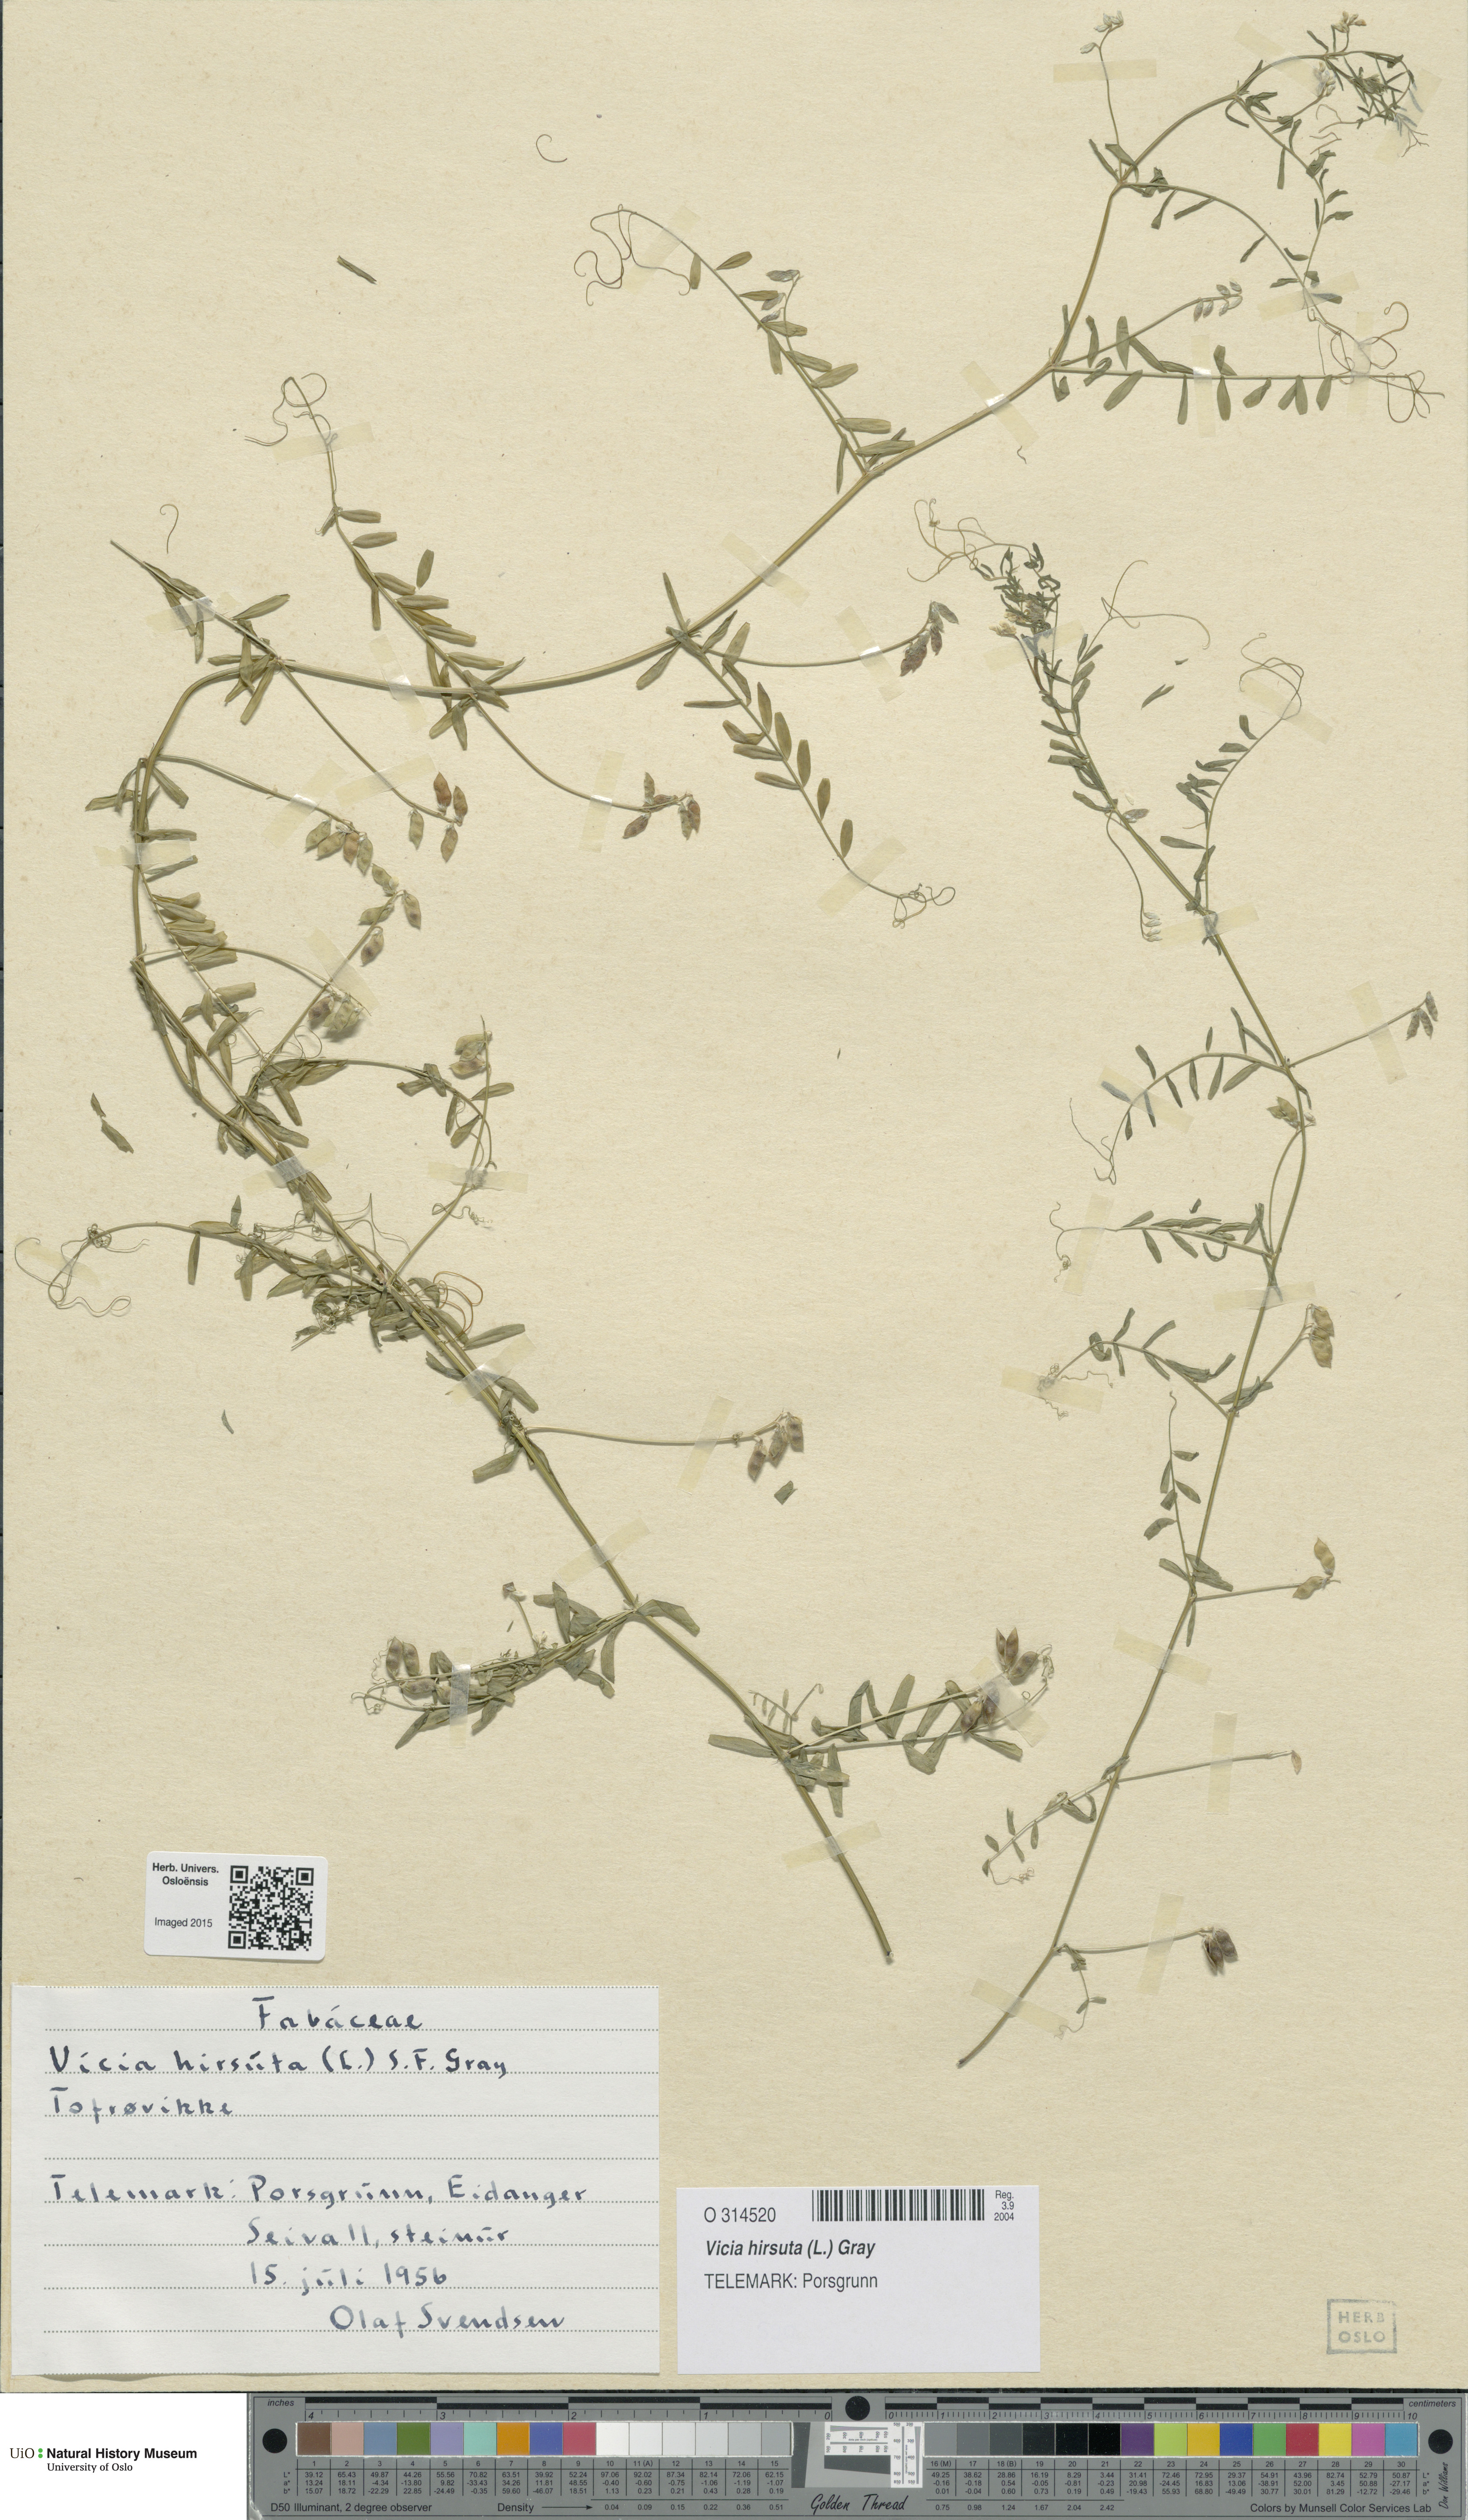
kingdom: Plantae
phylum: Tracheophyta
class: Magnoliopsida
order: Fabales
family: Fabaceae
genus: Vicia
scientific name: Vicia hirsuta
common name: Tiny vetch
